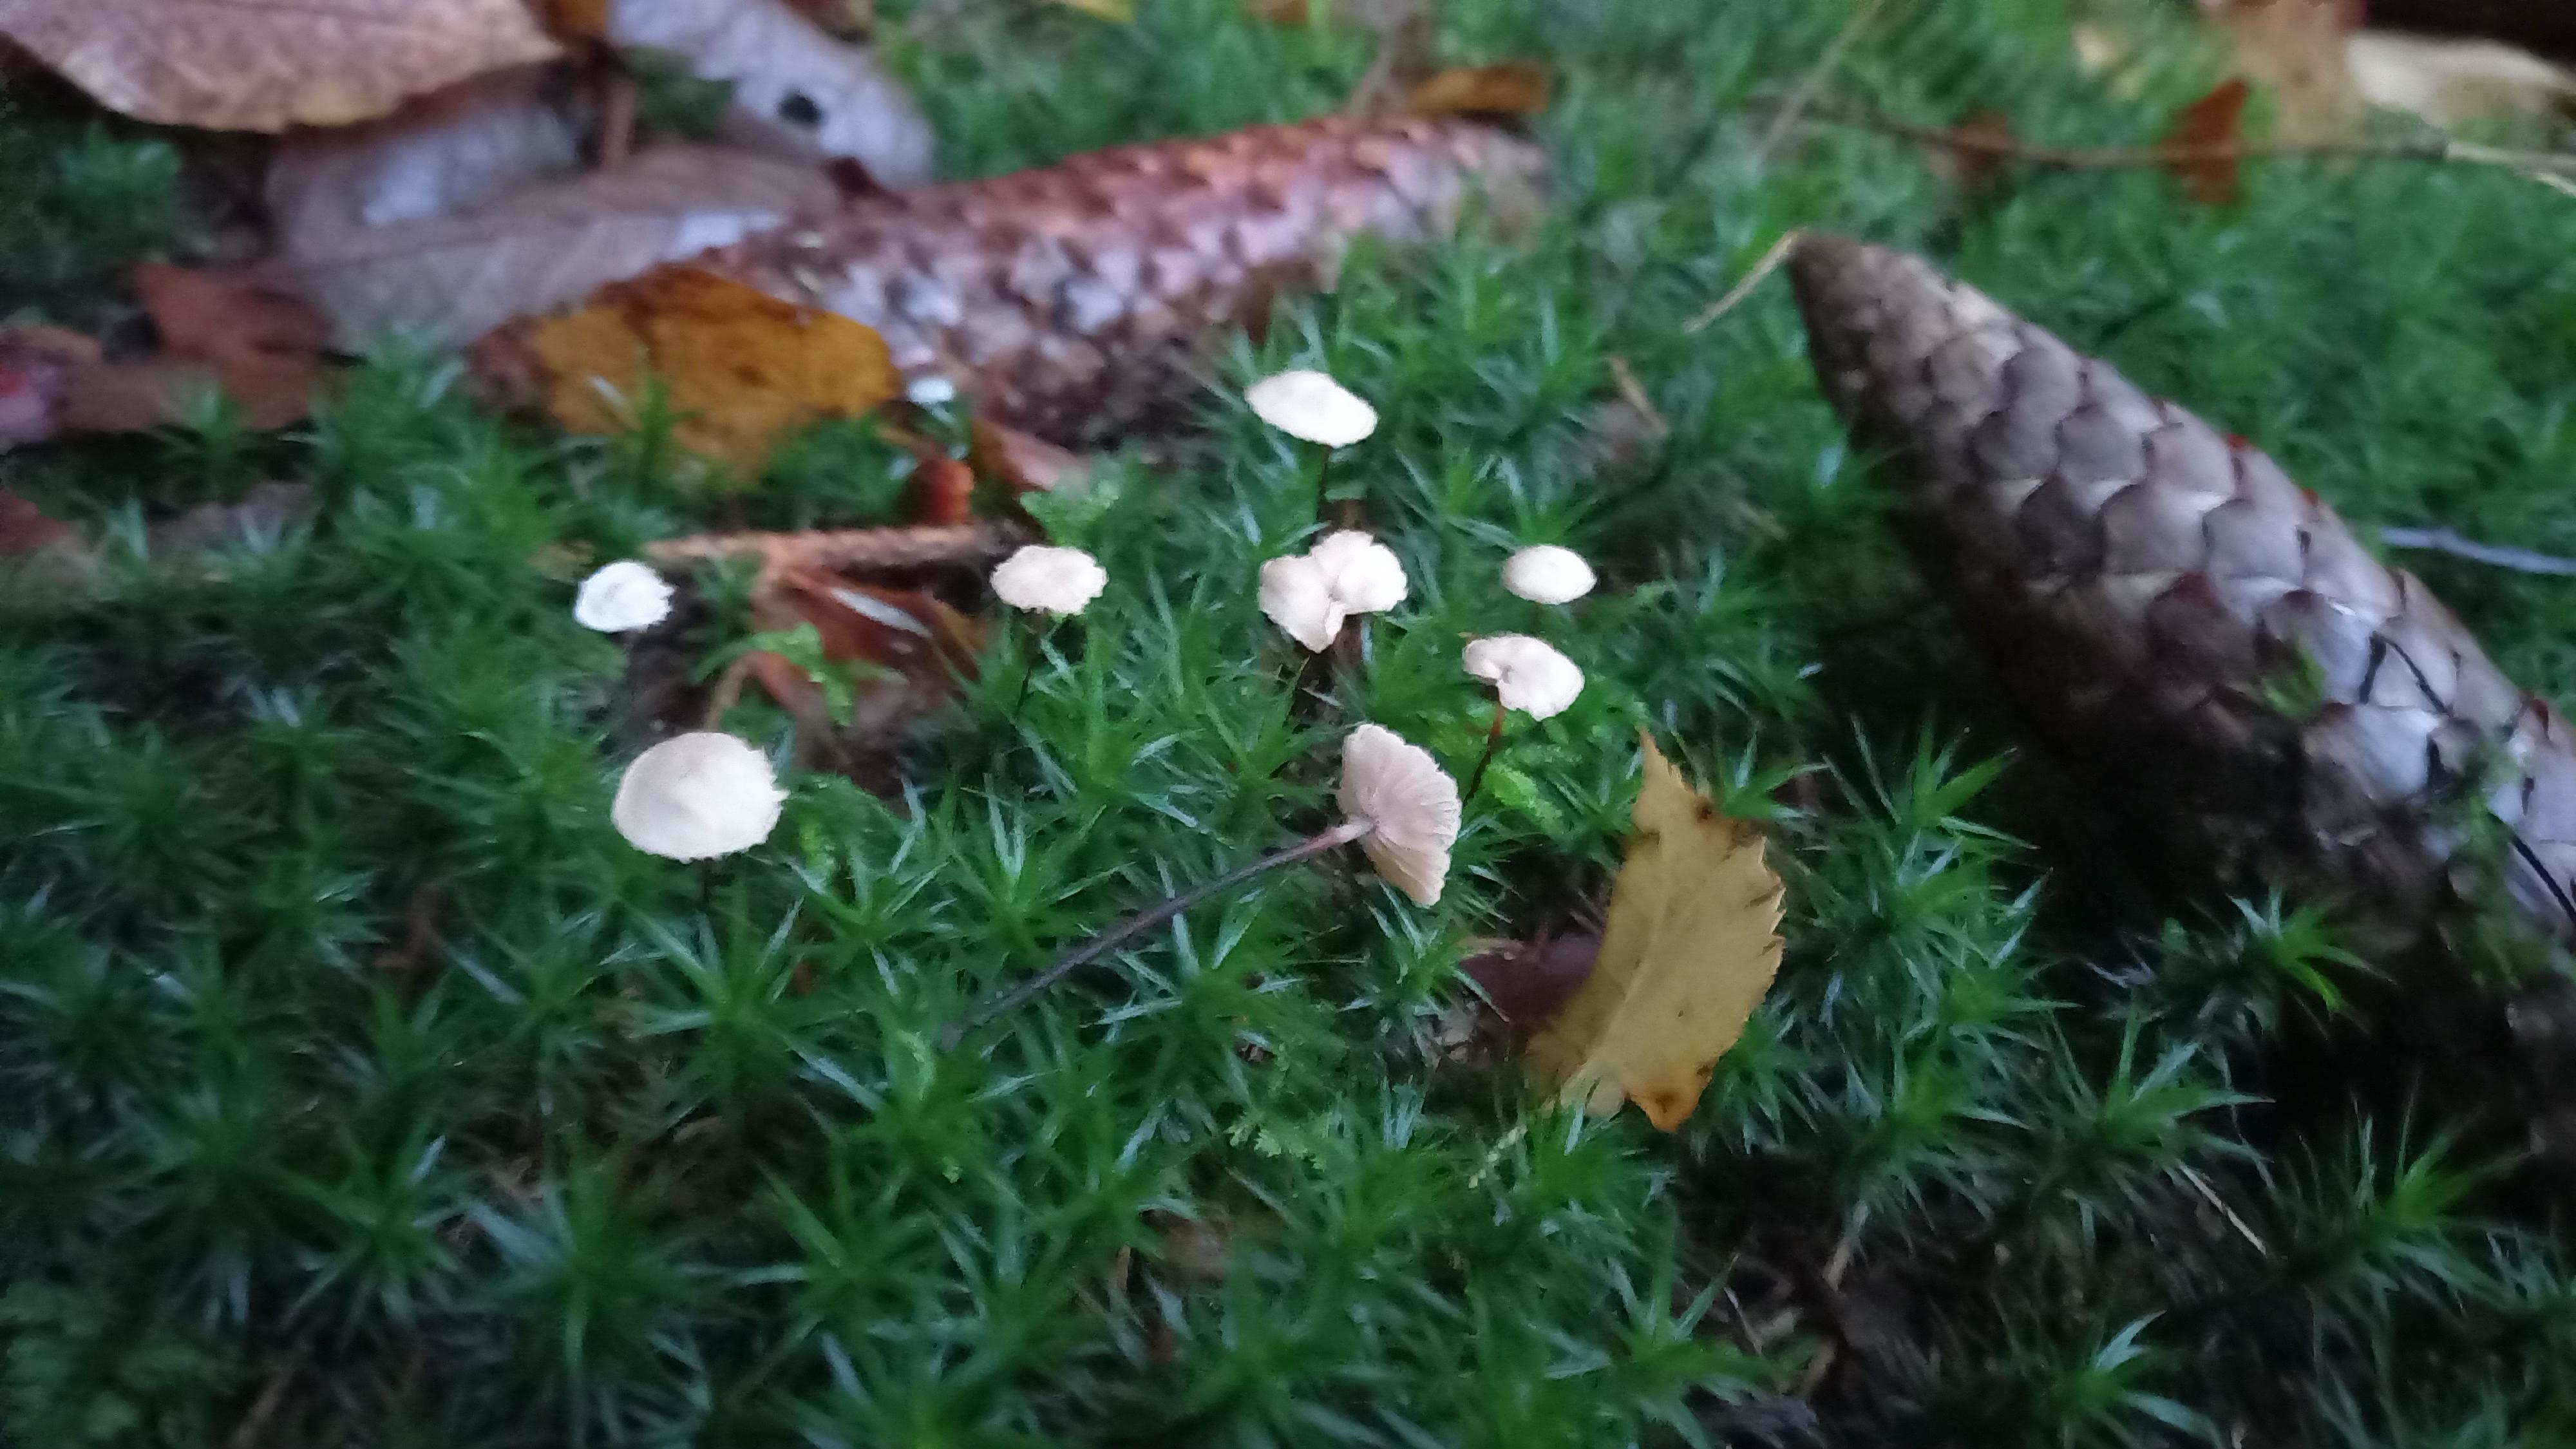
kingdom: Fungi
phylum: Basidiomycota
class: Agaricomycetes
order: Agaricales
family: Omphalotaceae
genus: Paragymnopus
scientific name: Paragymnopus perforans
